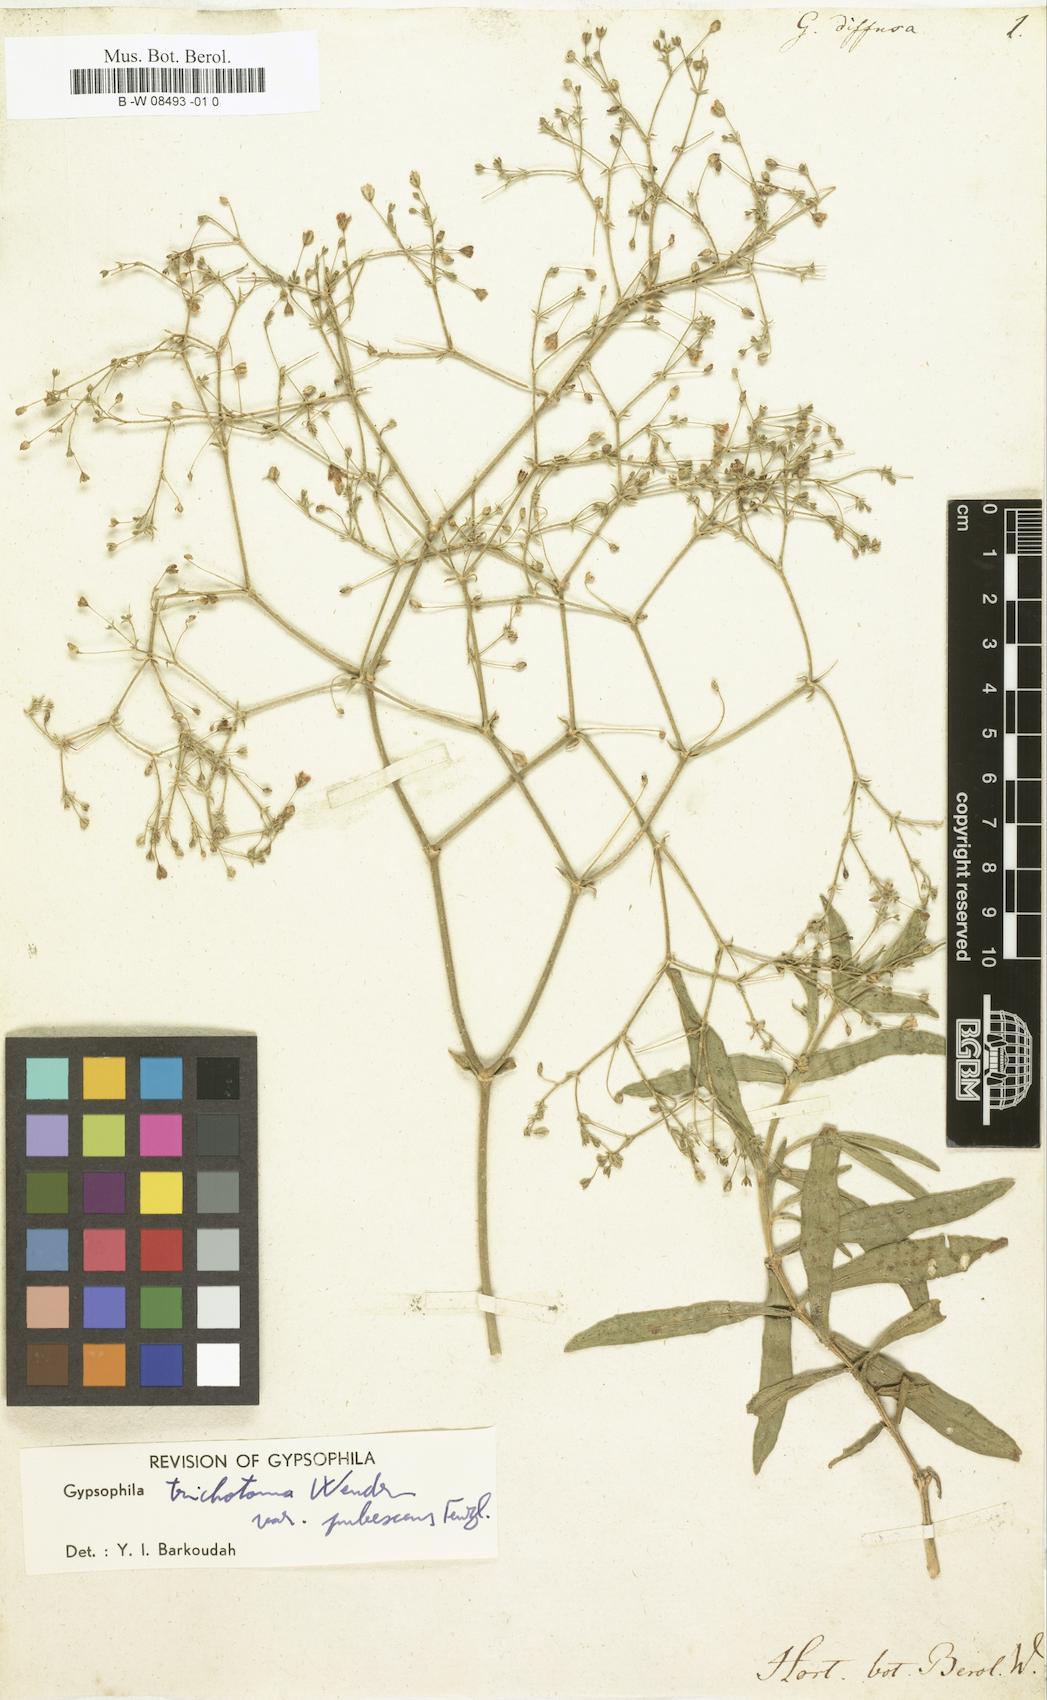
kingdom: Plantae
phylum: Tracheophyta
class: Magnoliopsida
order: Caryophyllales
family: Caryophyllaceae
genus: Gypsophila
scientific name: Gypsophila diffusa
